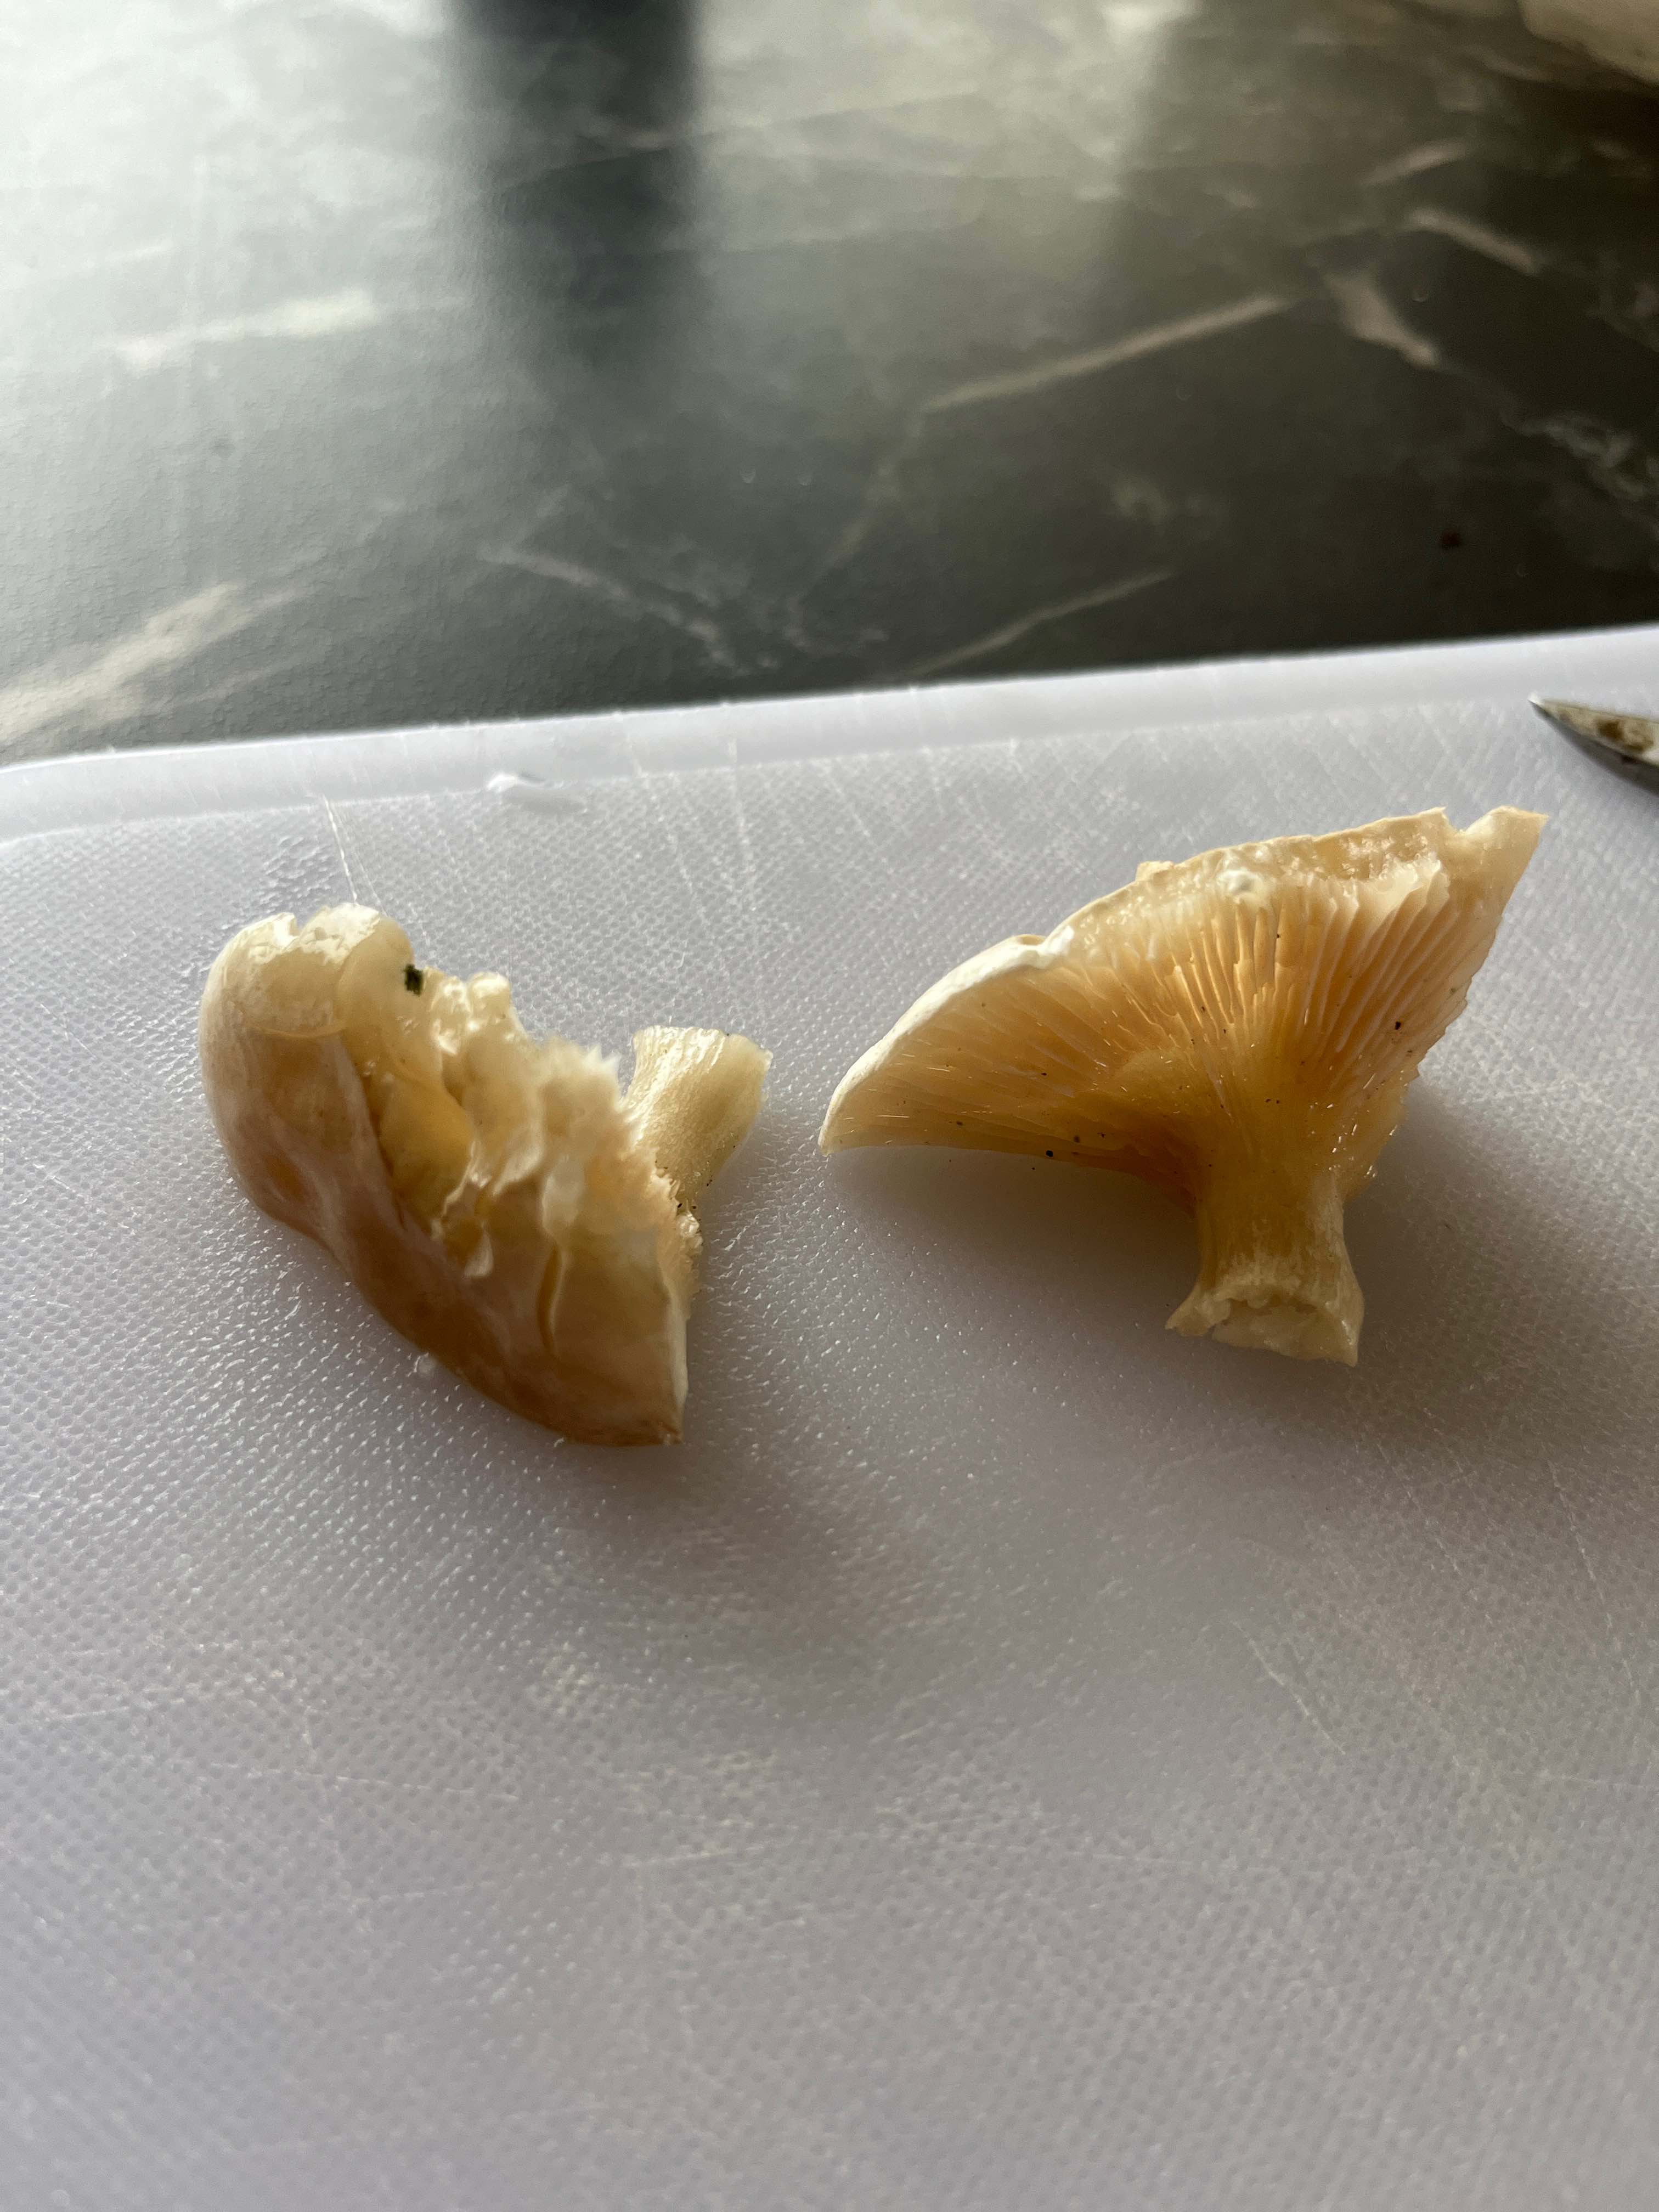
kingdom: Fungi
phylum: Basidiomycota
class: Agaricomycetes
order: Agaricales
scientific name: Agaricales
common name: champignonordenen
